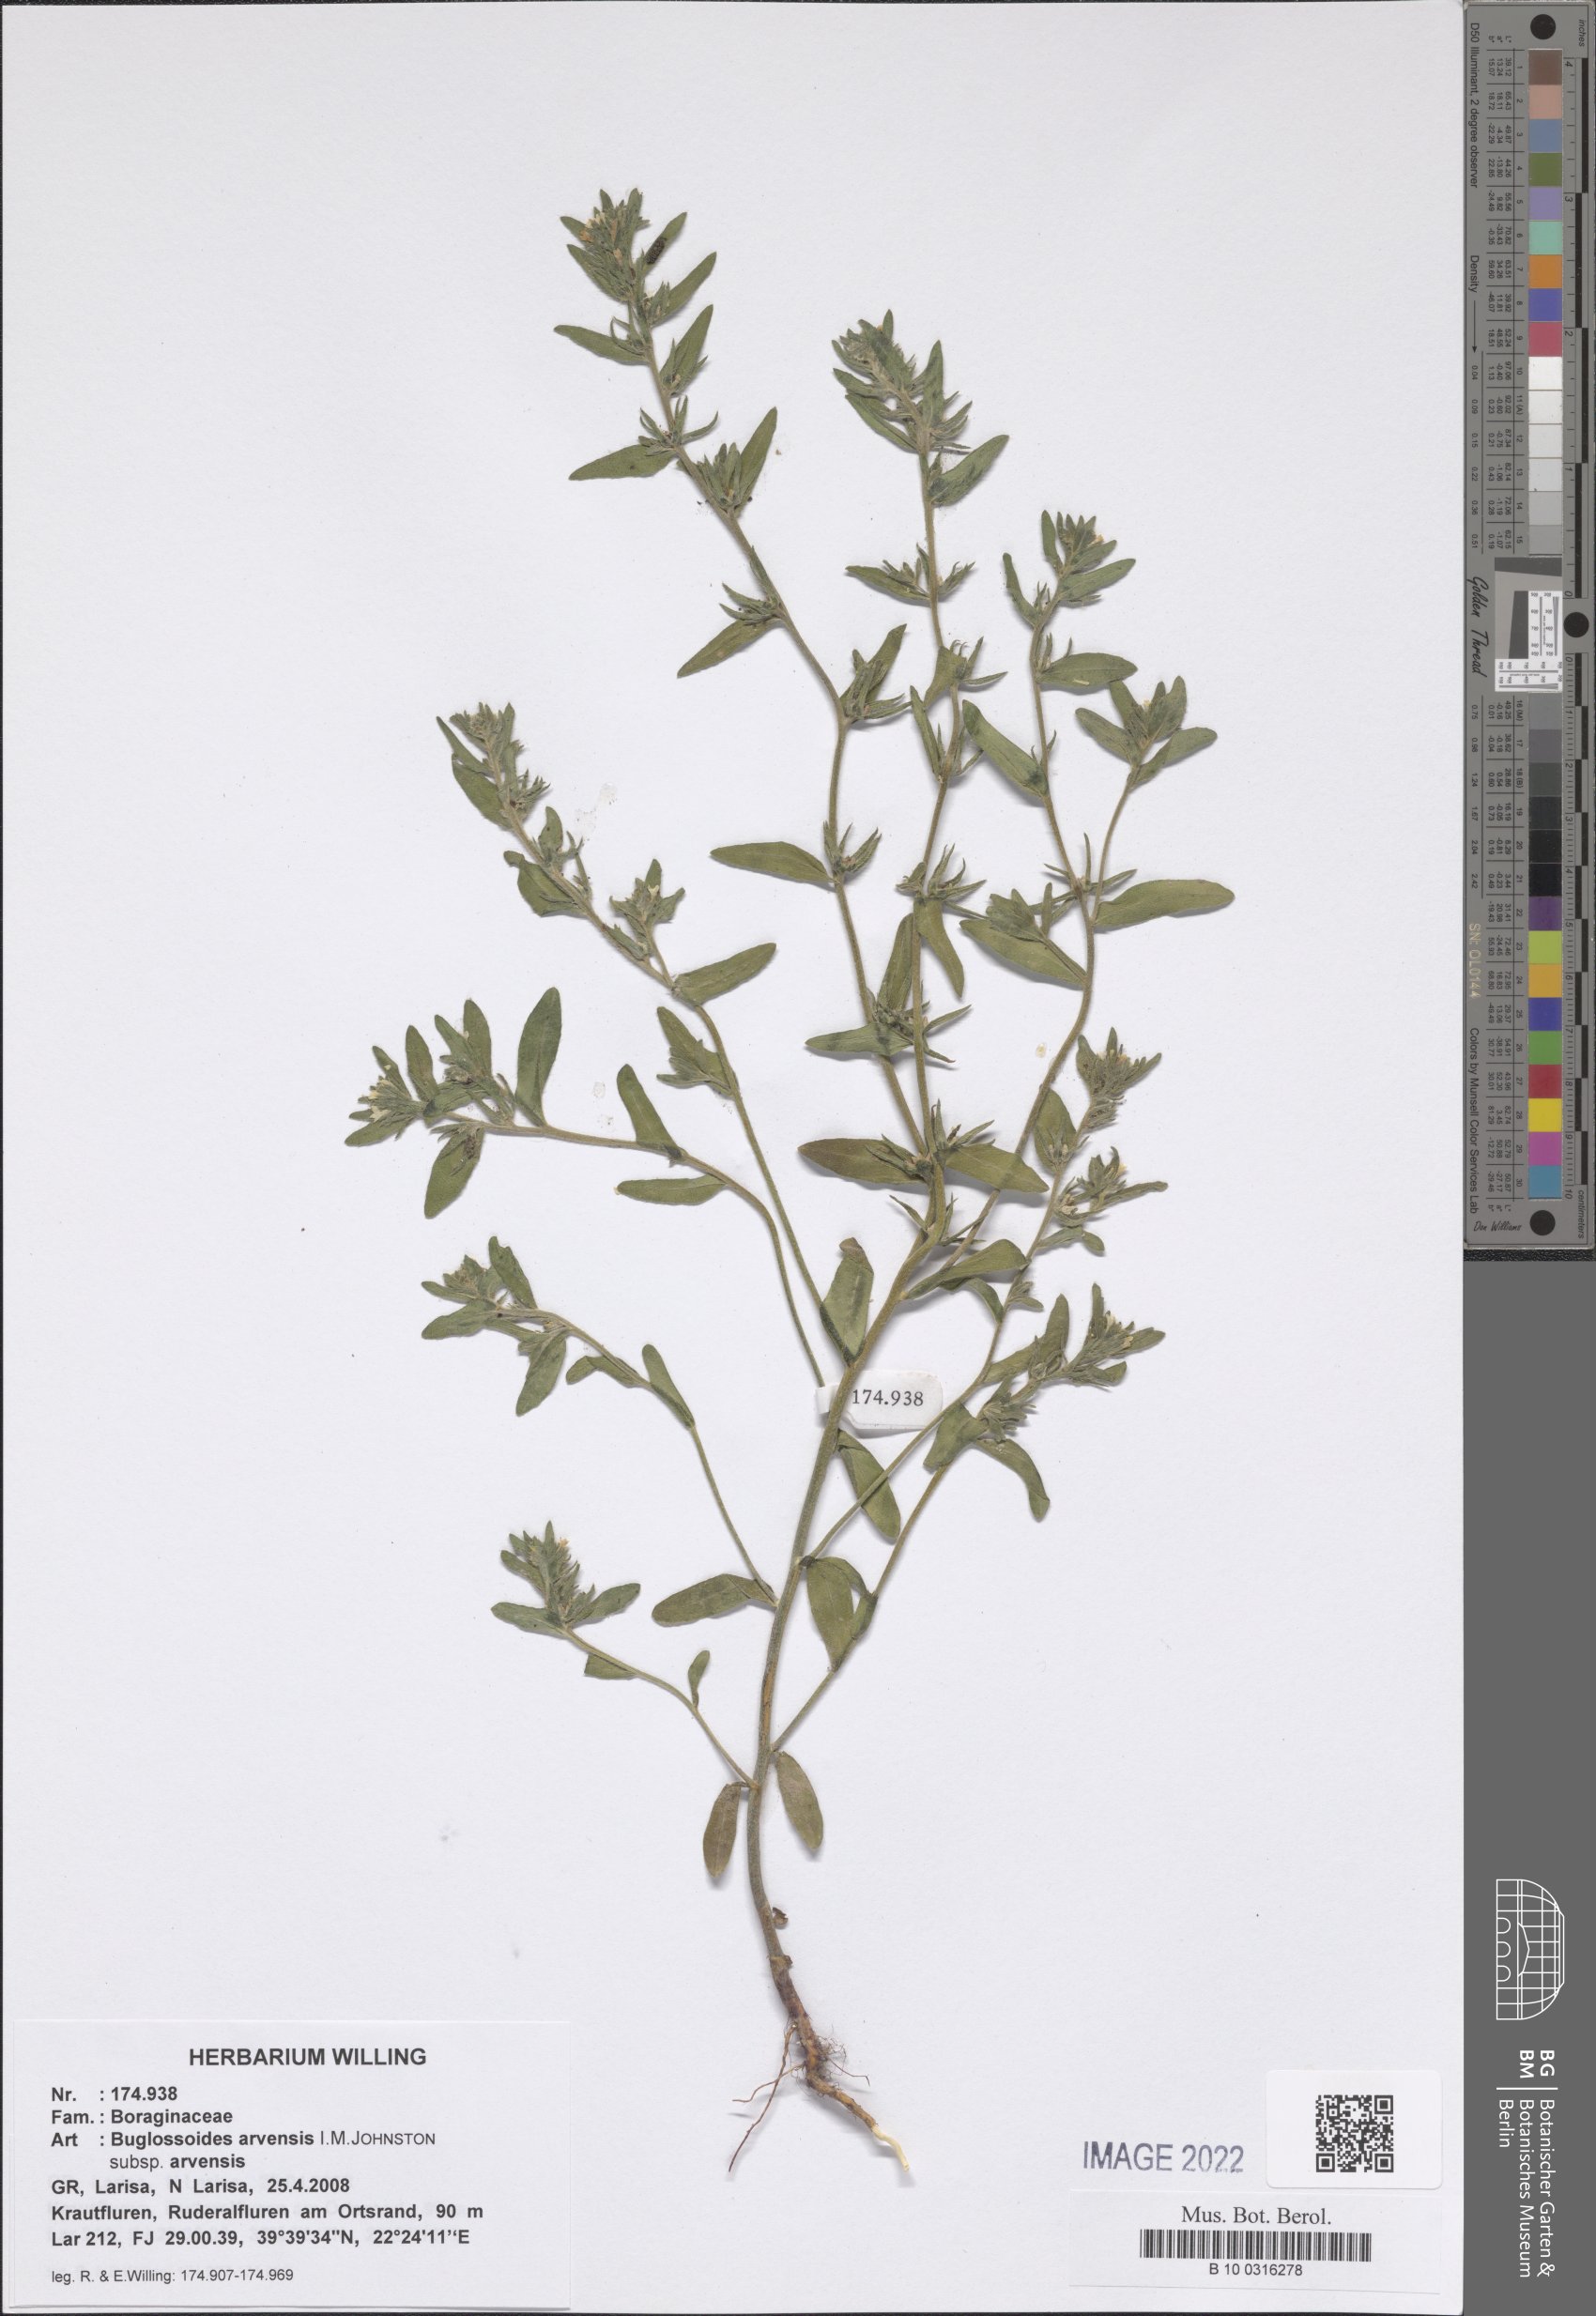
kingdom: Plantae
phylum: Tracheophyta
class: Magnoliopsida
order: Boraginales
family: Boraginaceae
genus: Buglossoides
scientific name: Buglossoides arvensis
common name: Corn gromwell
